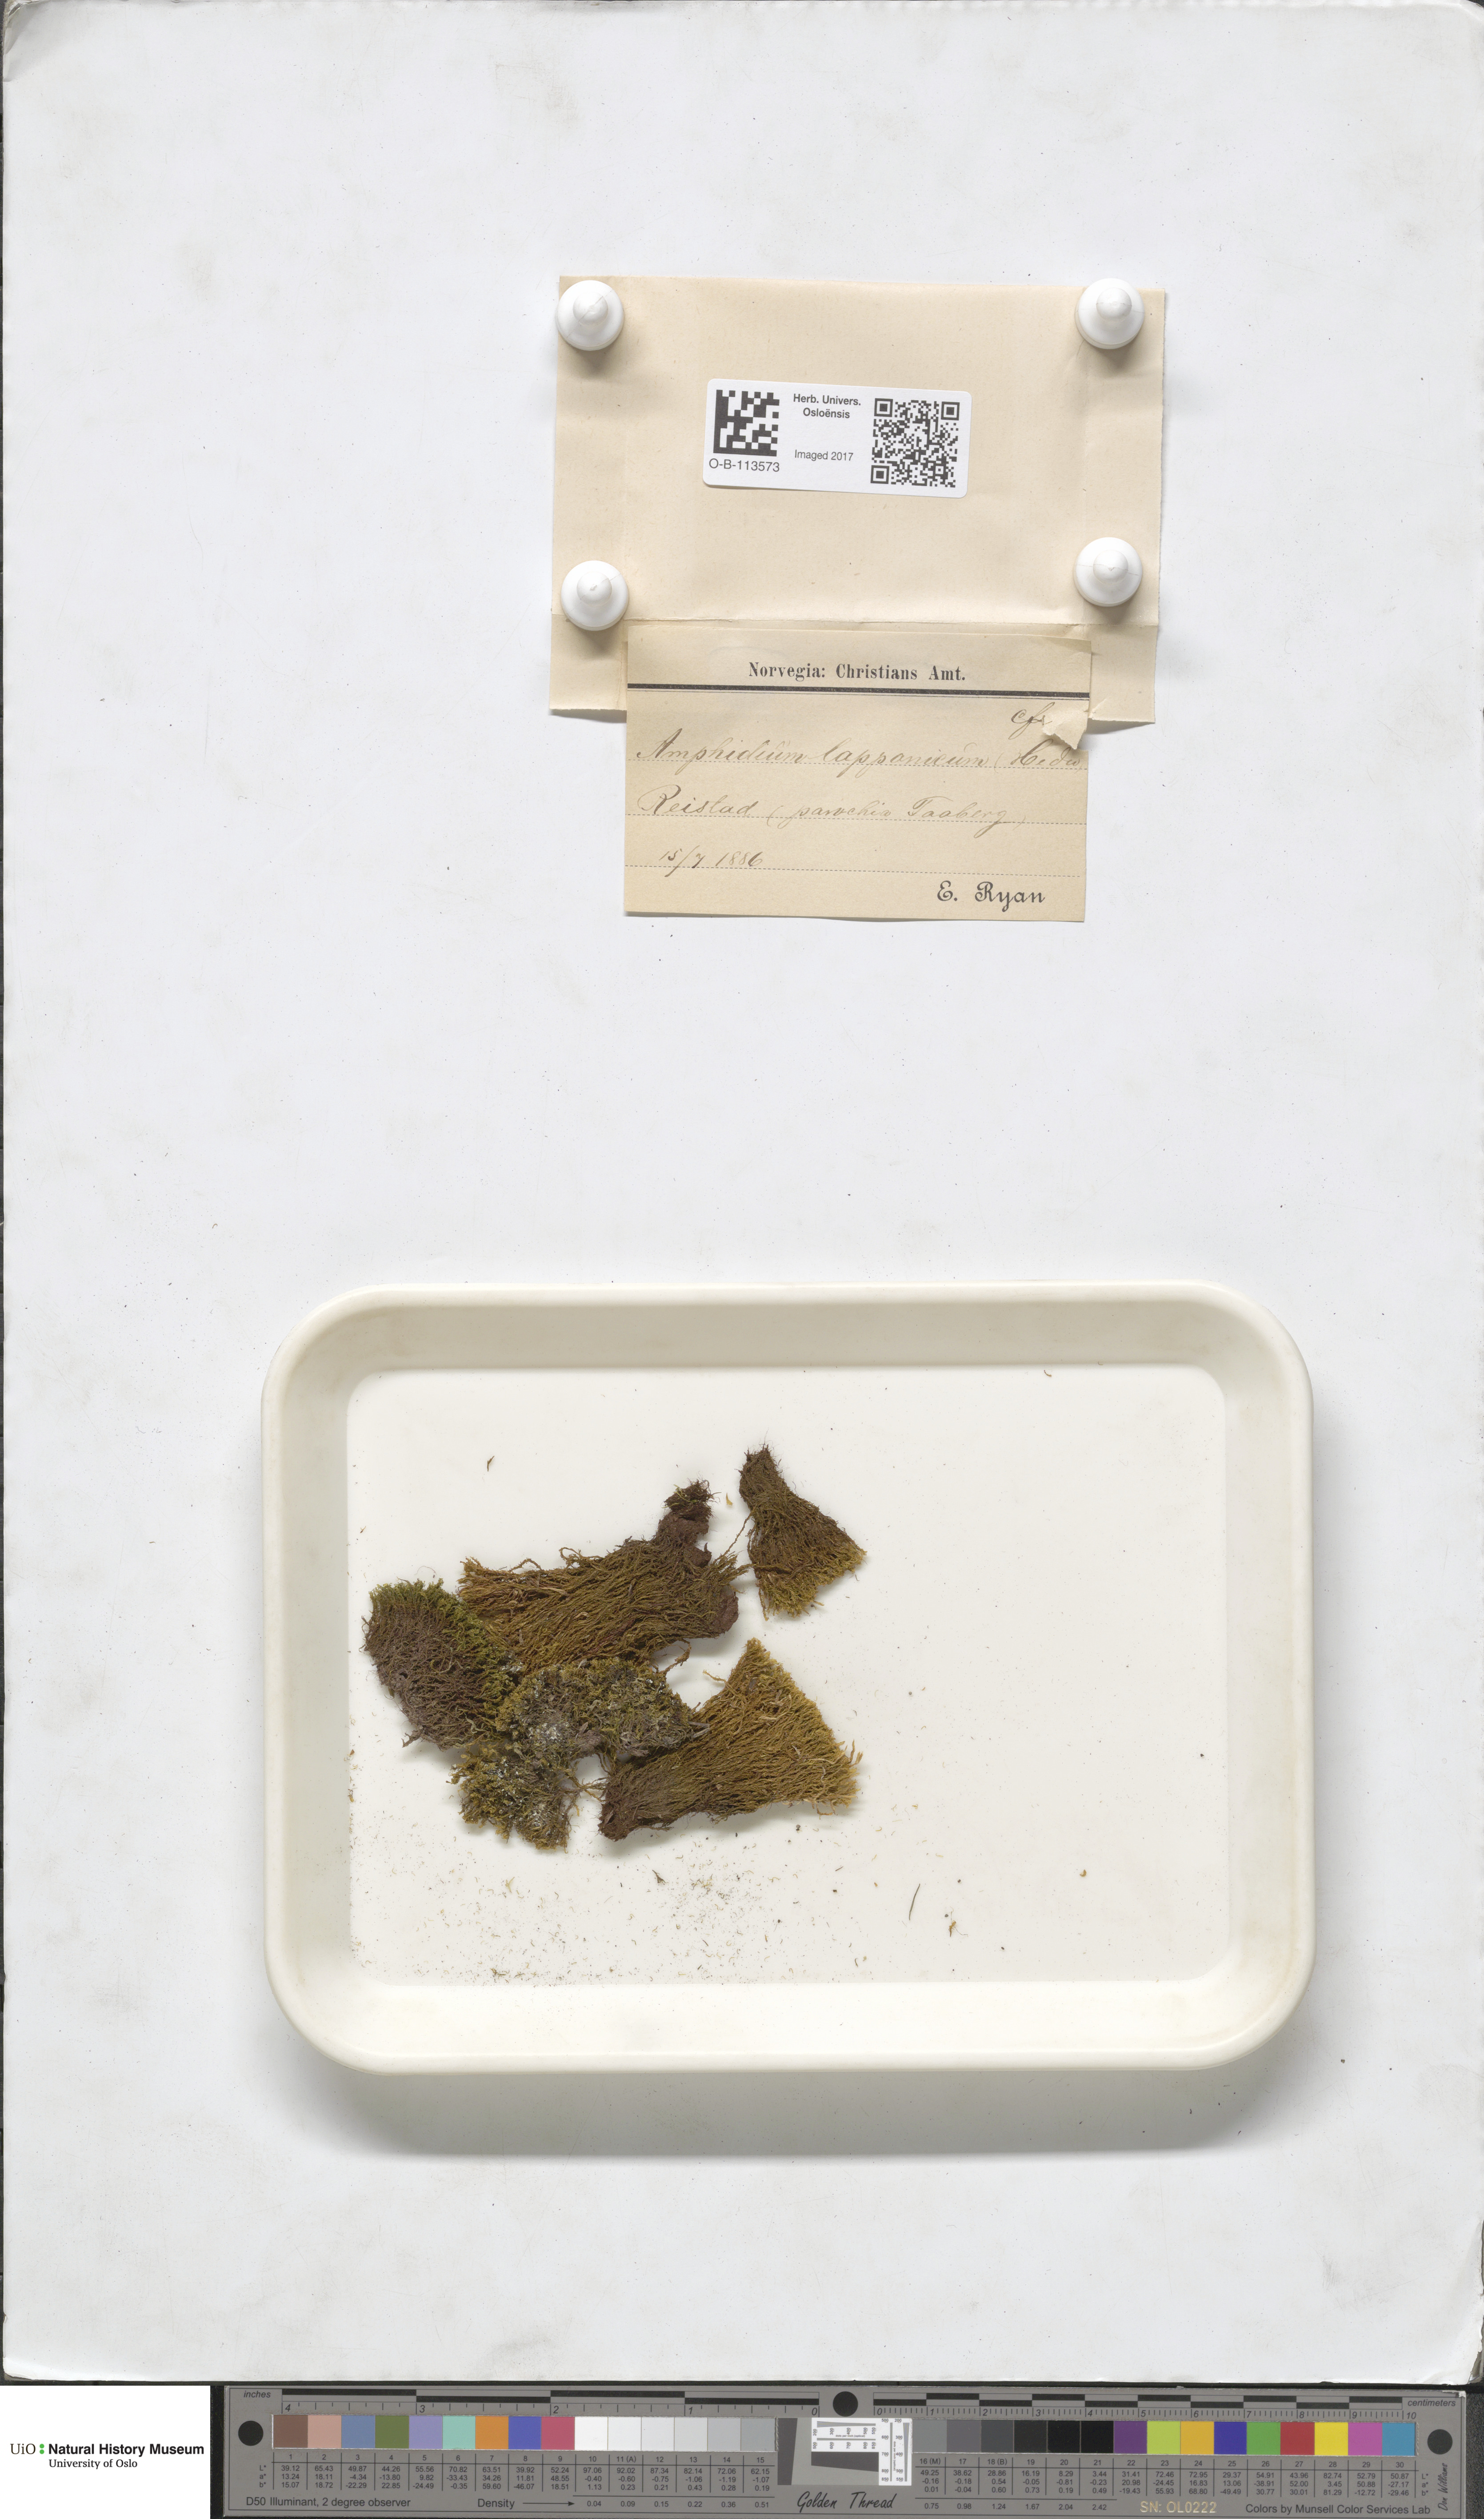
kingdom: Plantae
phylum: Bryophyta
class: Bryopsida
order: Dicranales
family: Amphidiaceae
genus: Amphidium
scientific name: Amphidium lapponicum
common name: Lapland yoke moss
